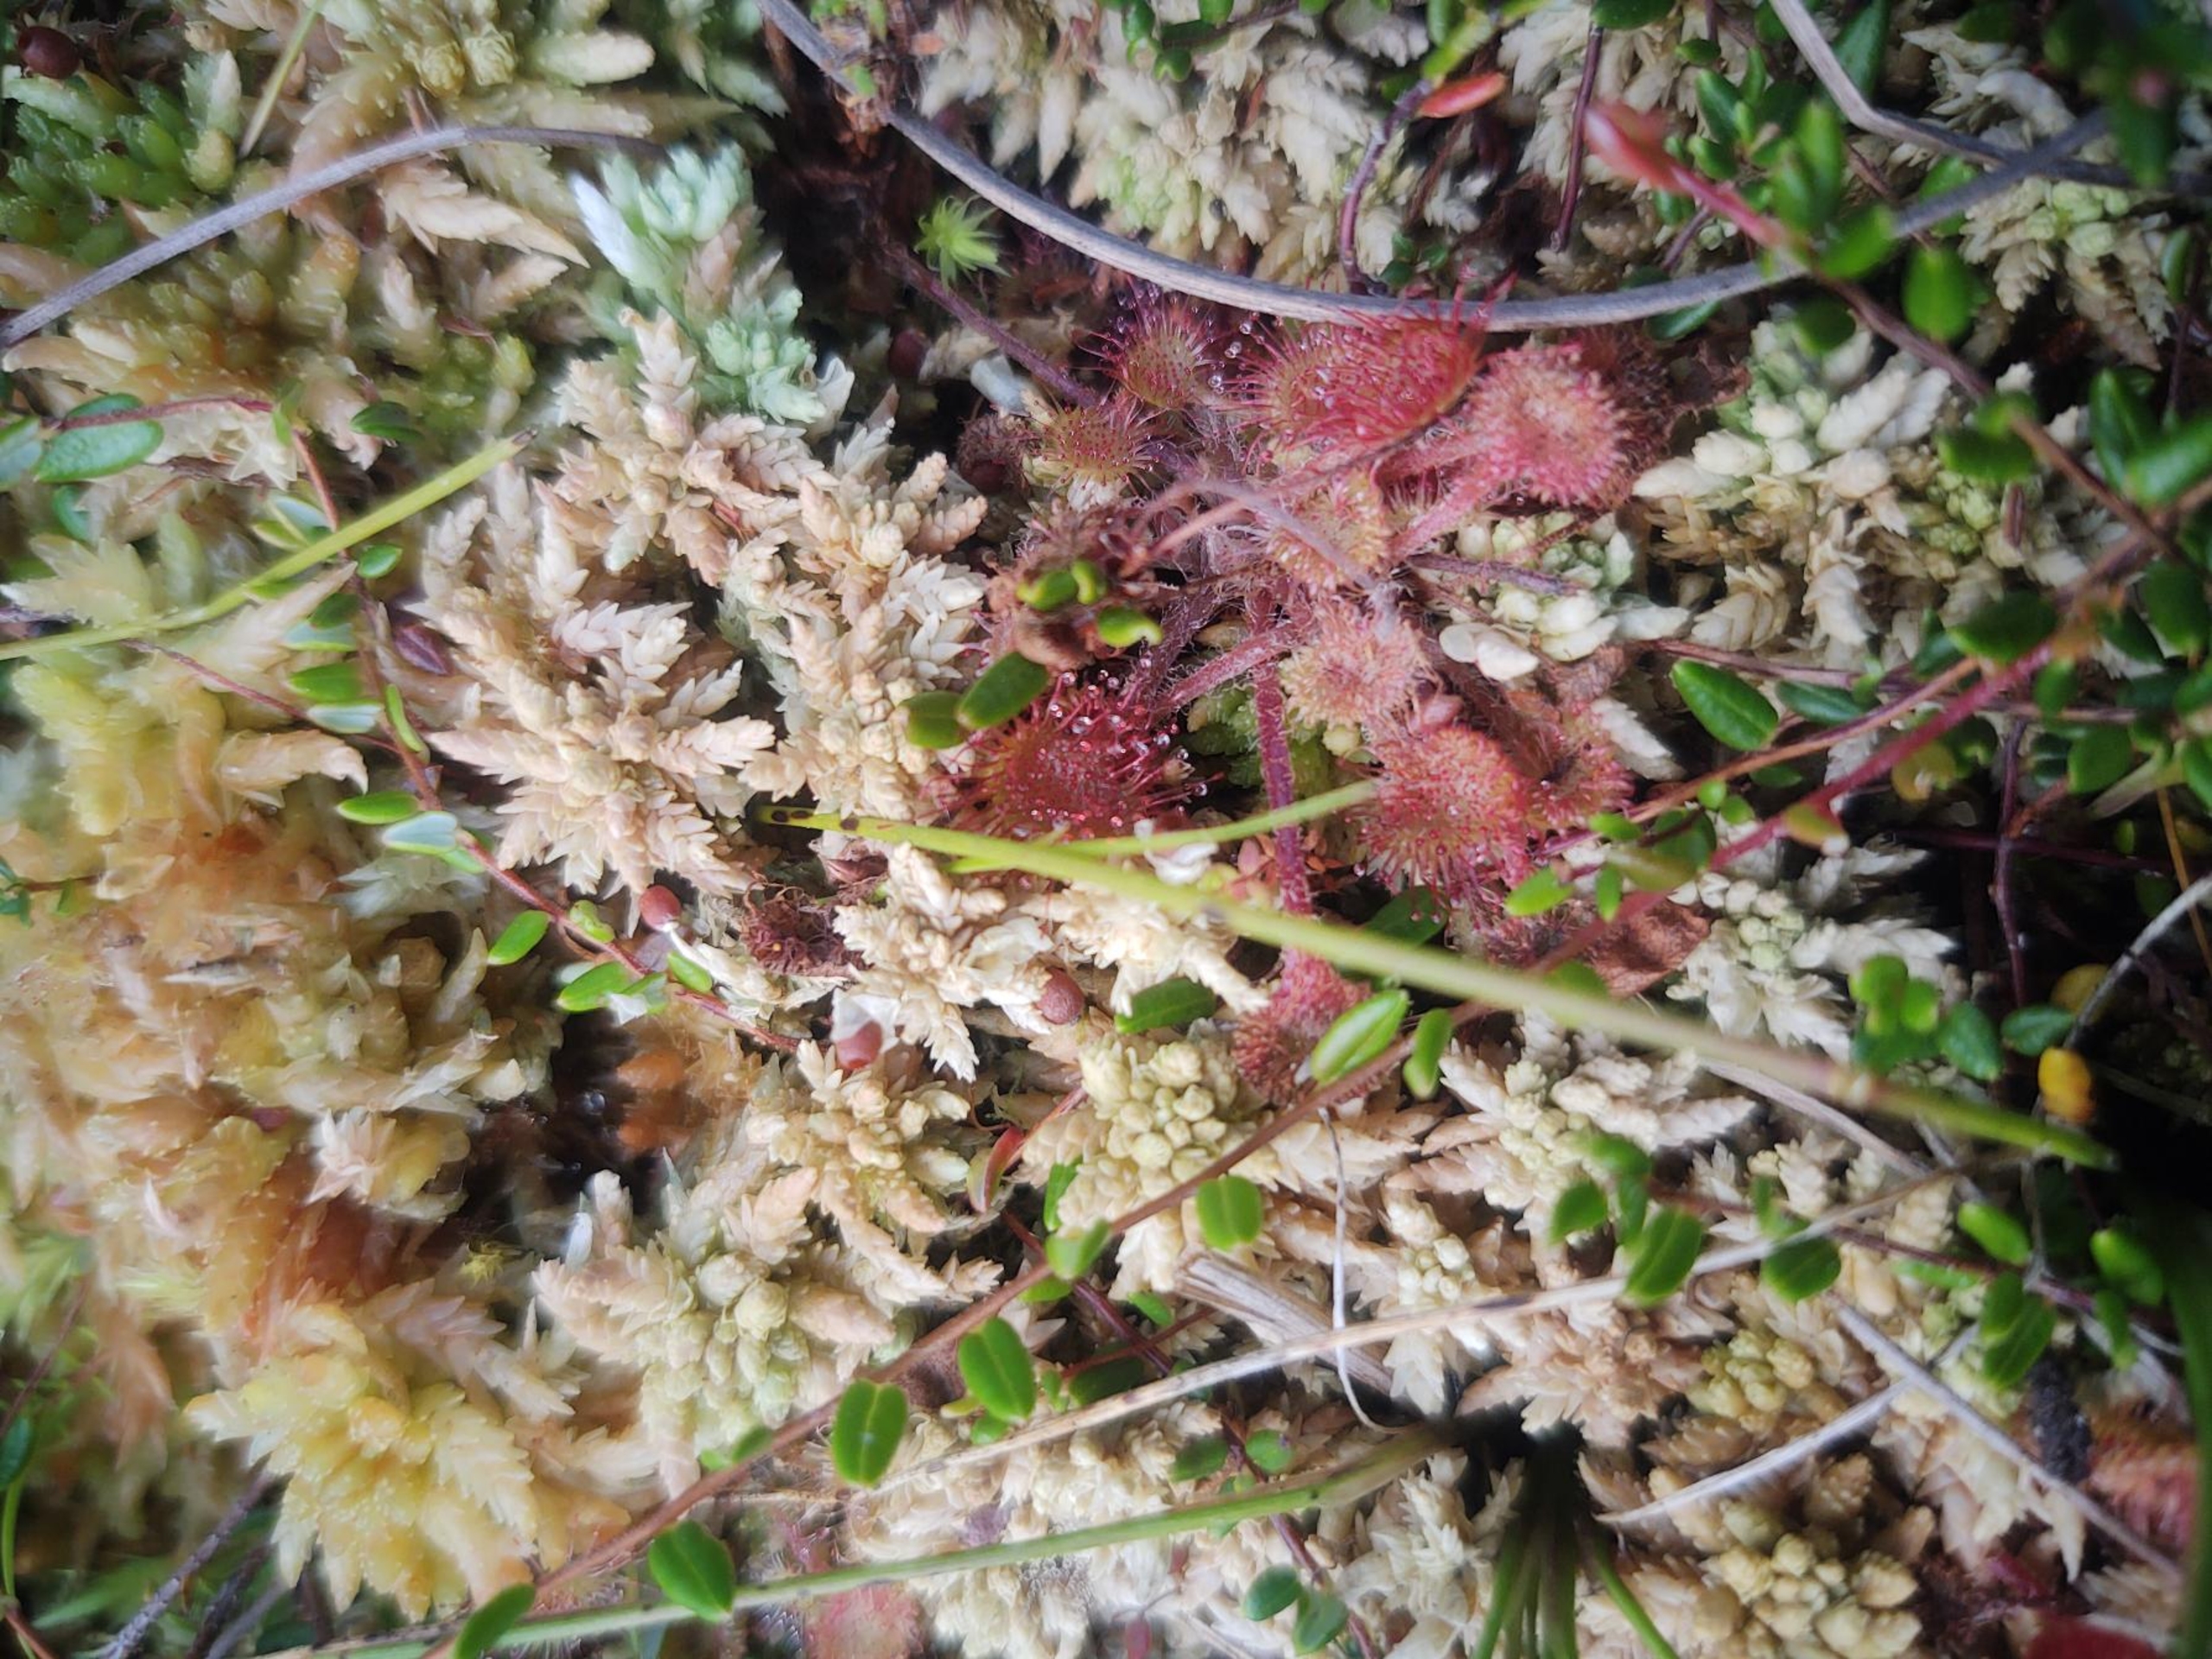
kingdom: Plantae
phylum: Tracheophyta
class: Magnoliopsida
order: Caryophyllales
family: Droseraceae
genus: Drosera
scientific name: Drosera rotundifolia
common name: Rundbladet soldug
